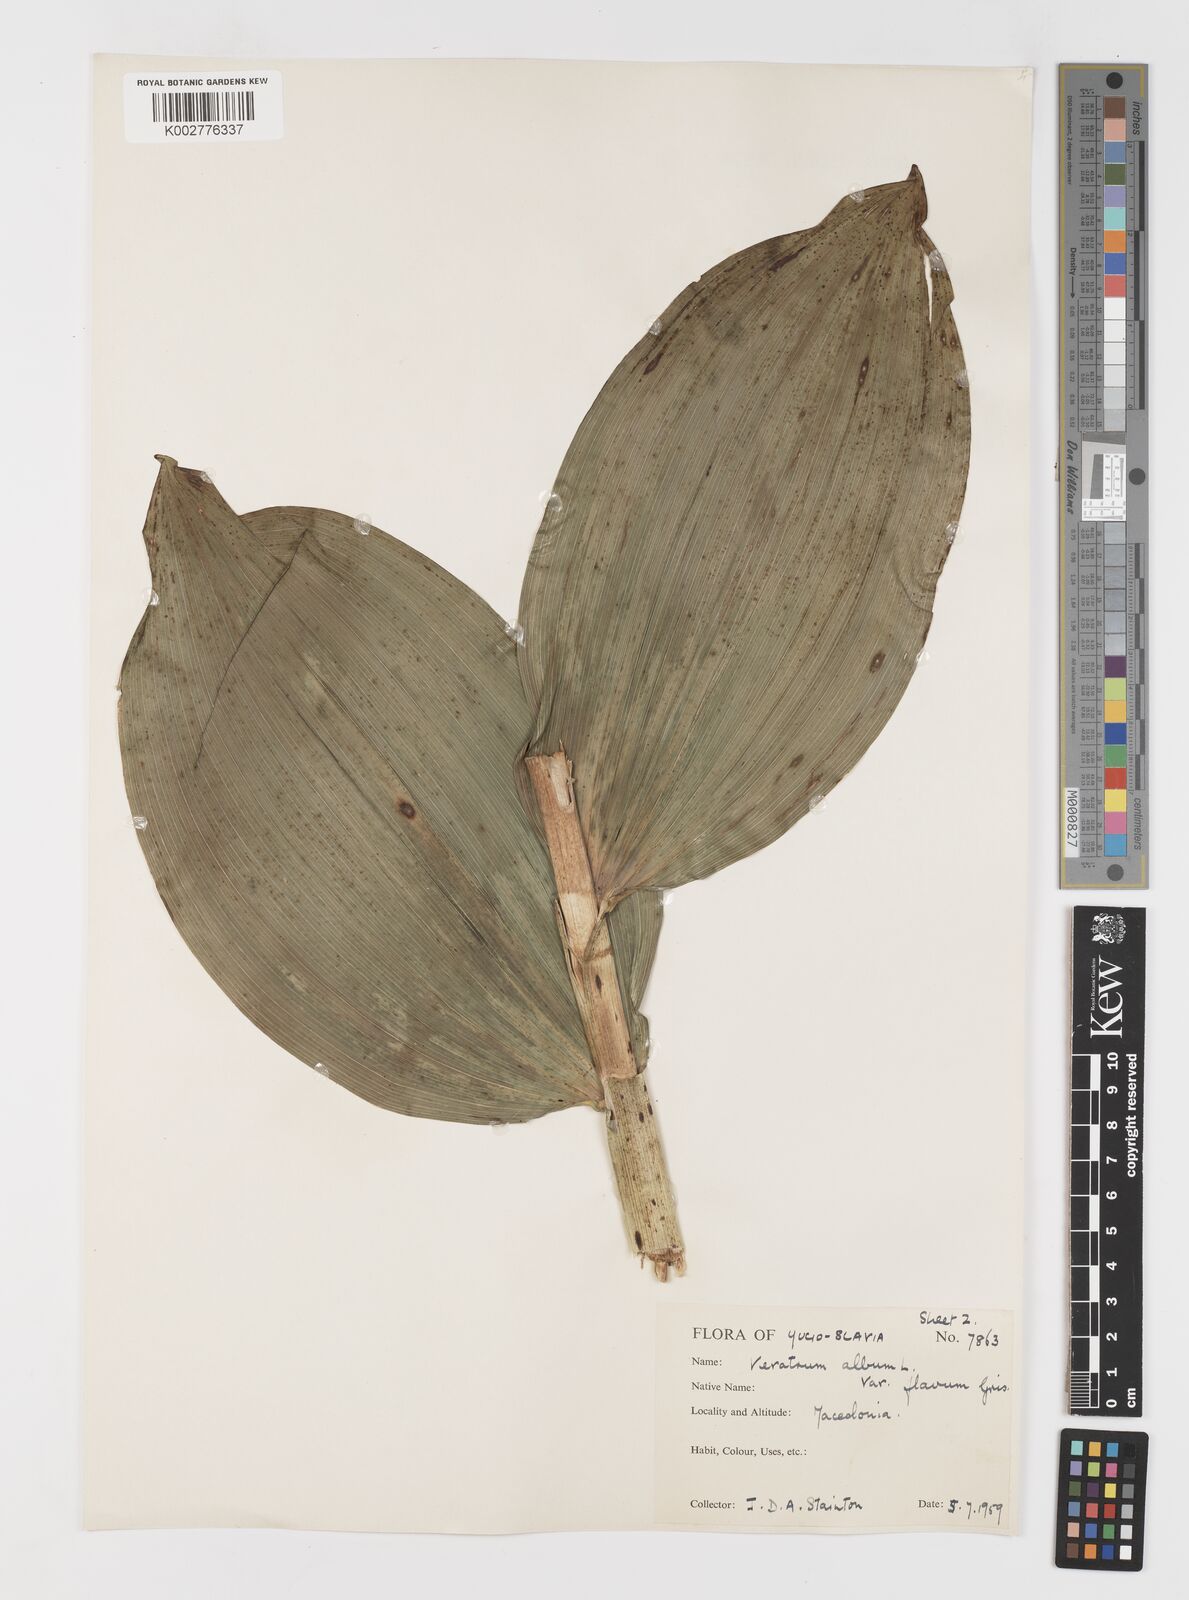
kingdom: Plantae
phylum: Tracheophyta
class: Liliopsida
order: Liliales
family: Melanthiaceae
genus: Veratrum
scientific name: Veratrum album
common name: White veratrum
